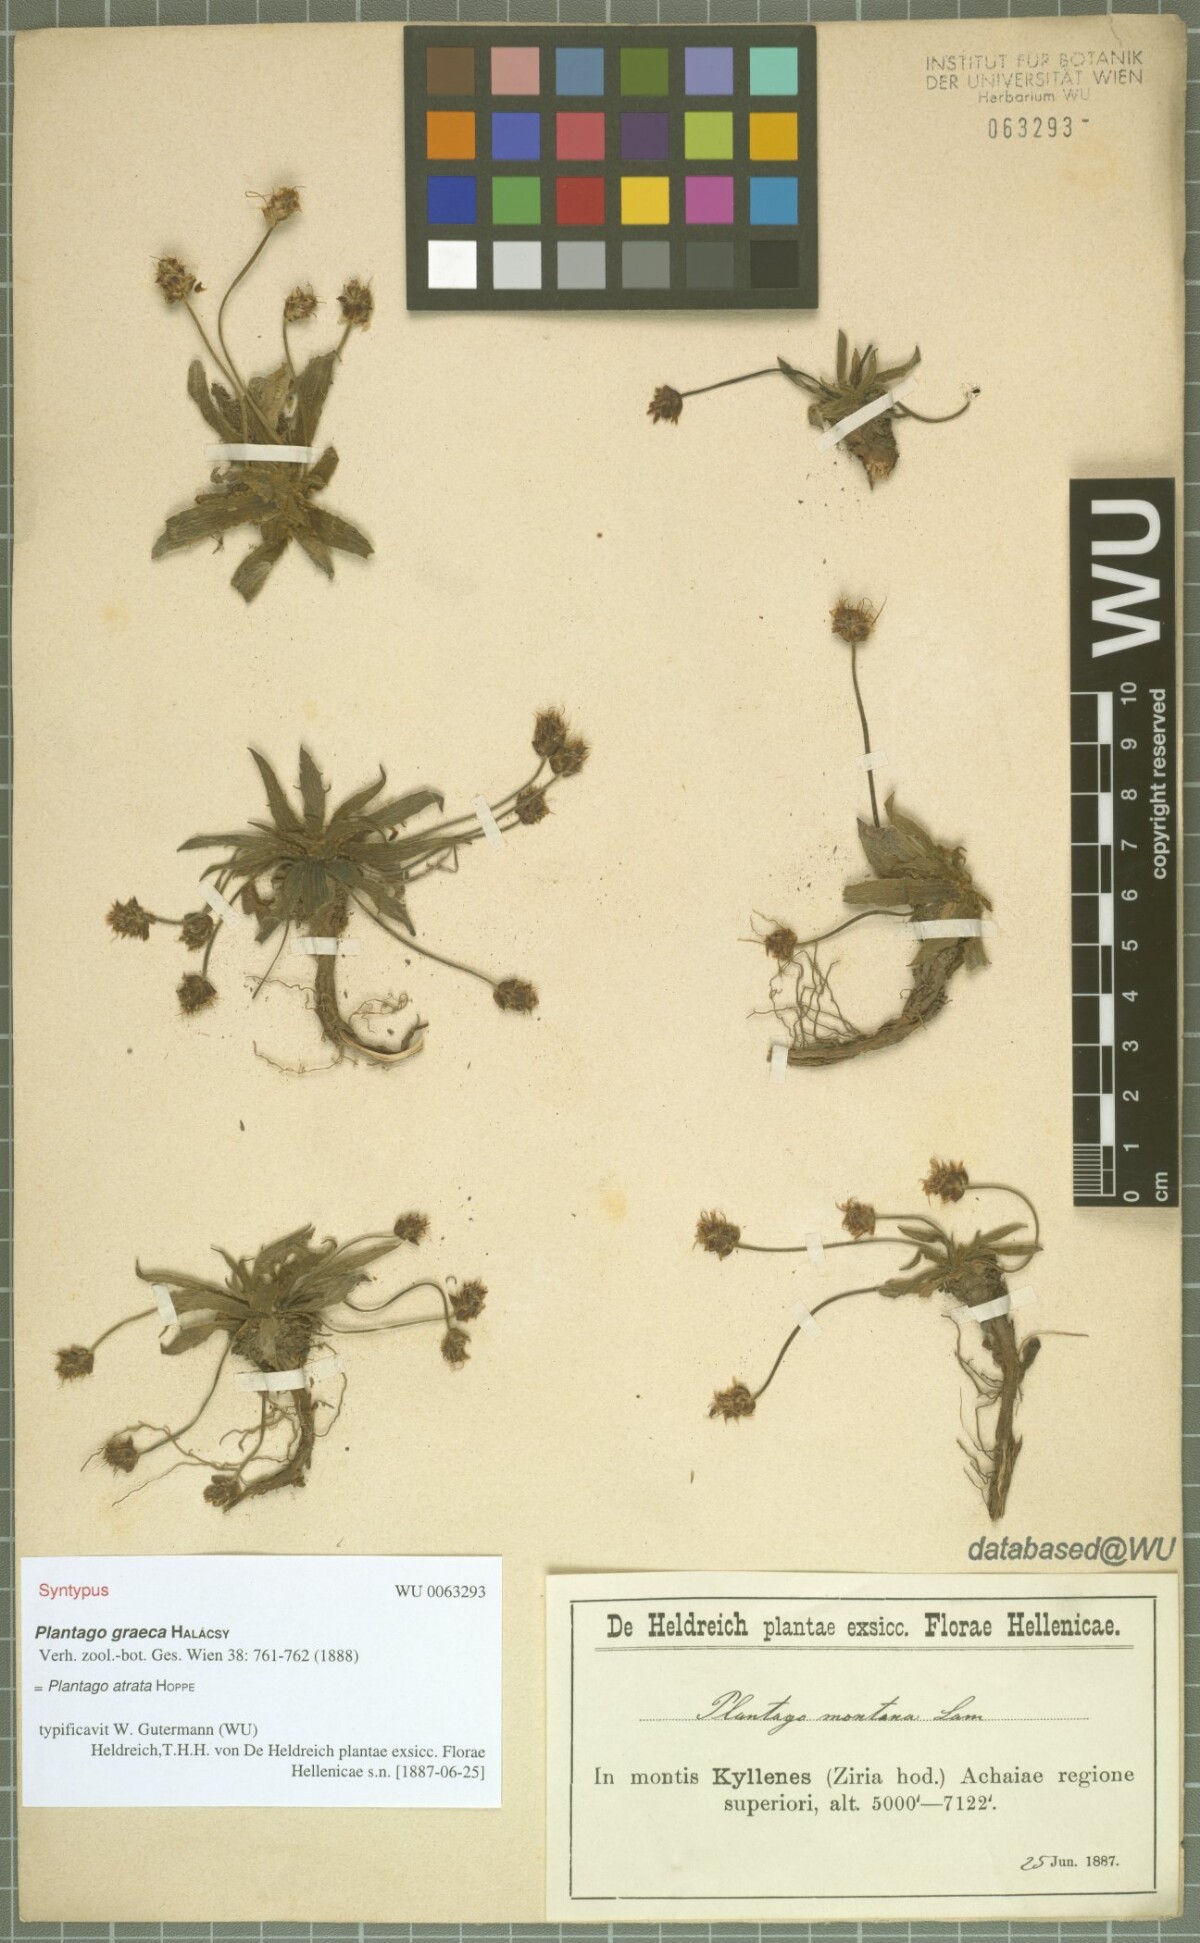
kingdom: Plantae
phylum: Tracheophyta
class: Magnoliopsida
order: Lamiales
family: Plantaginaceae
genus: Plantago
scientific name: Plantago atrata
